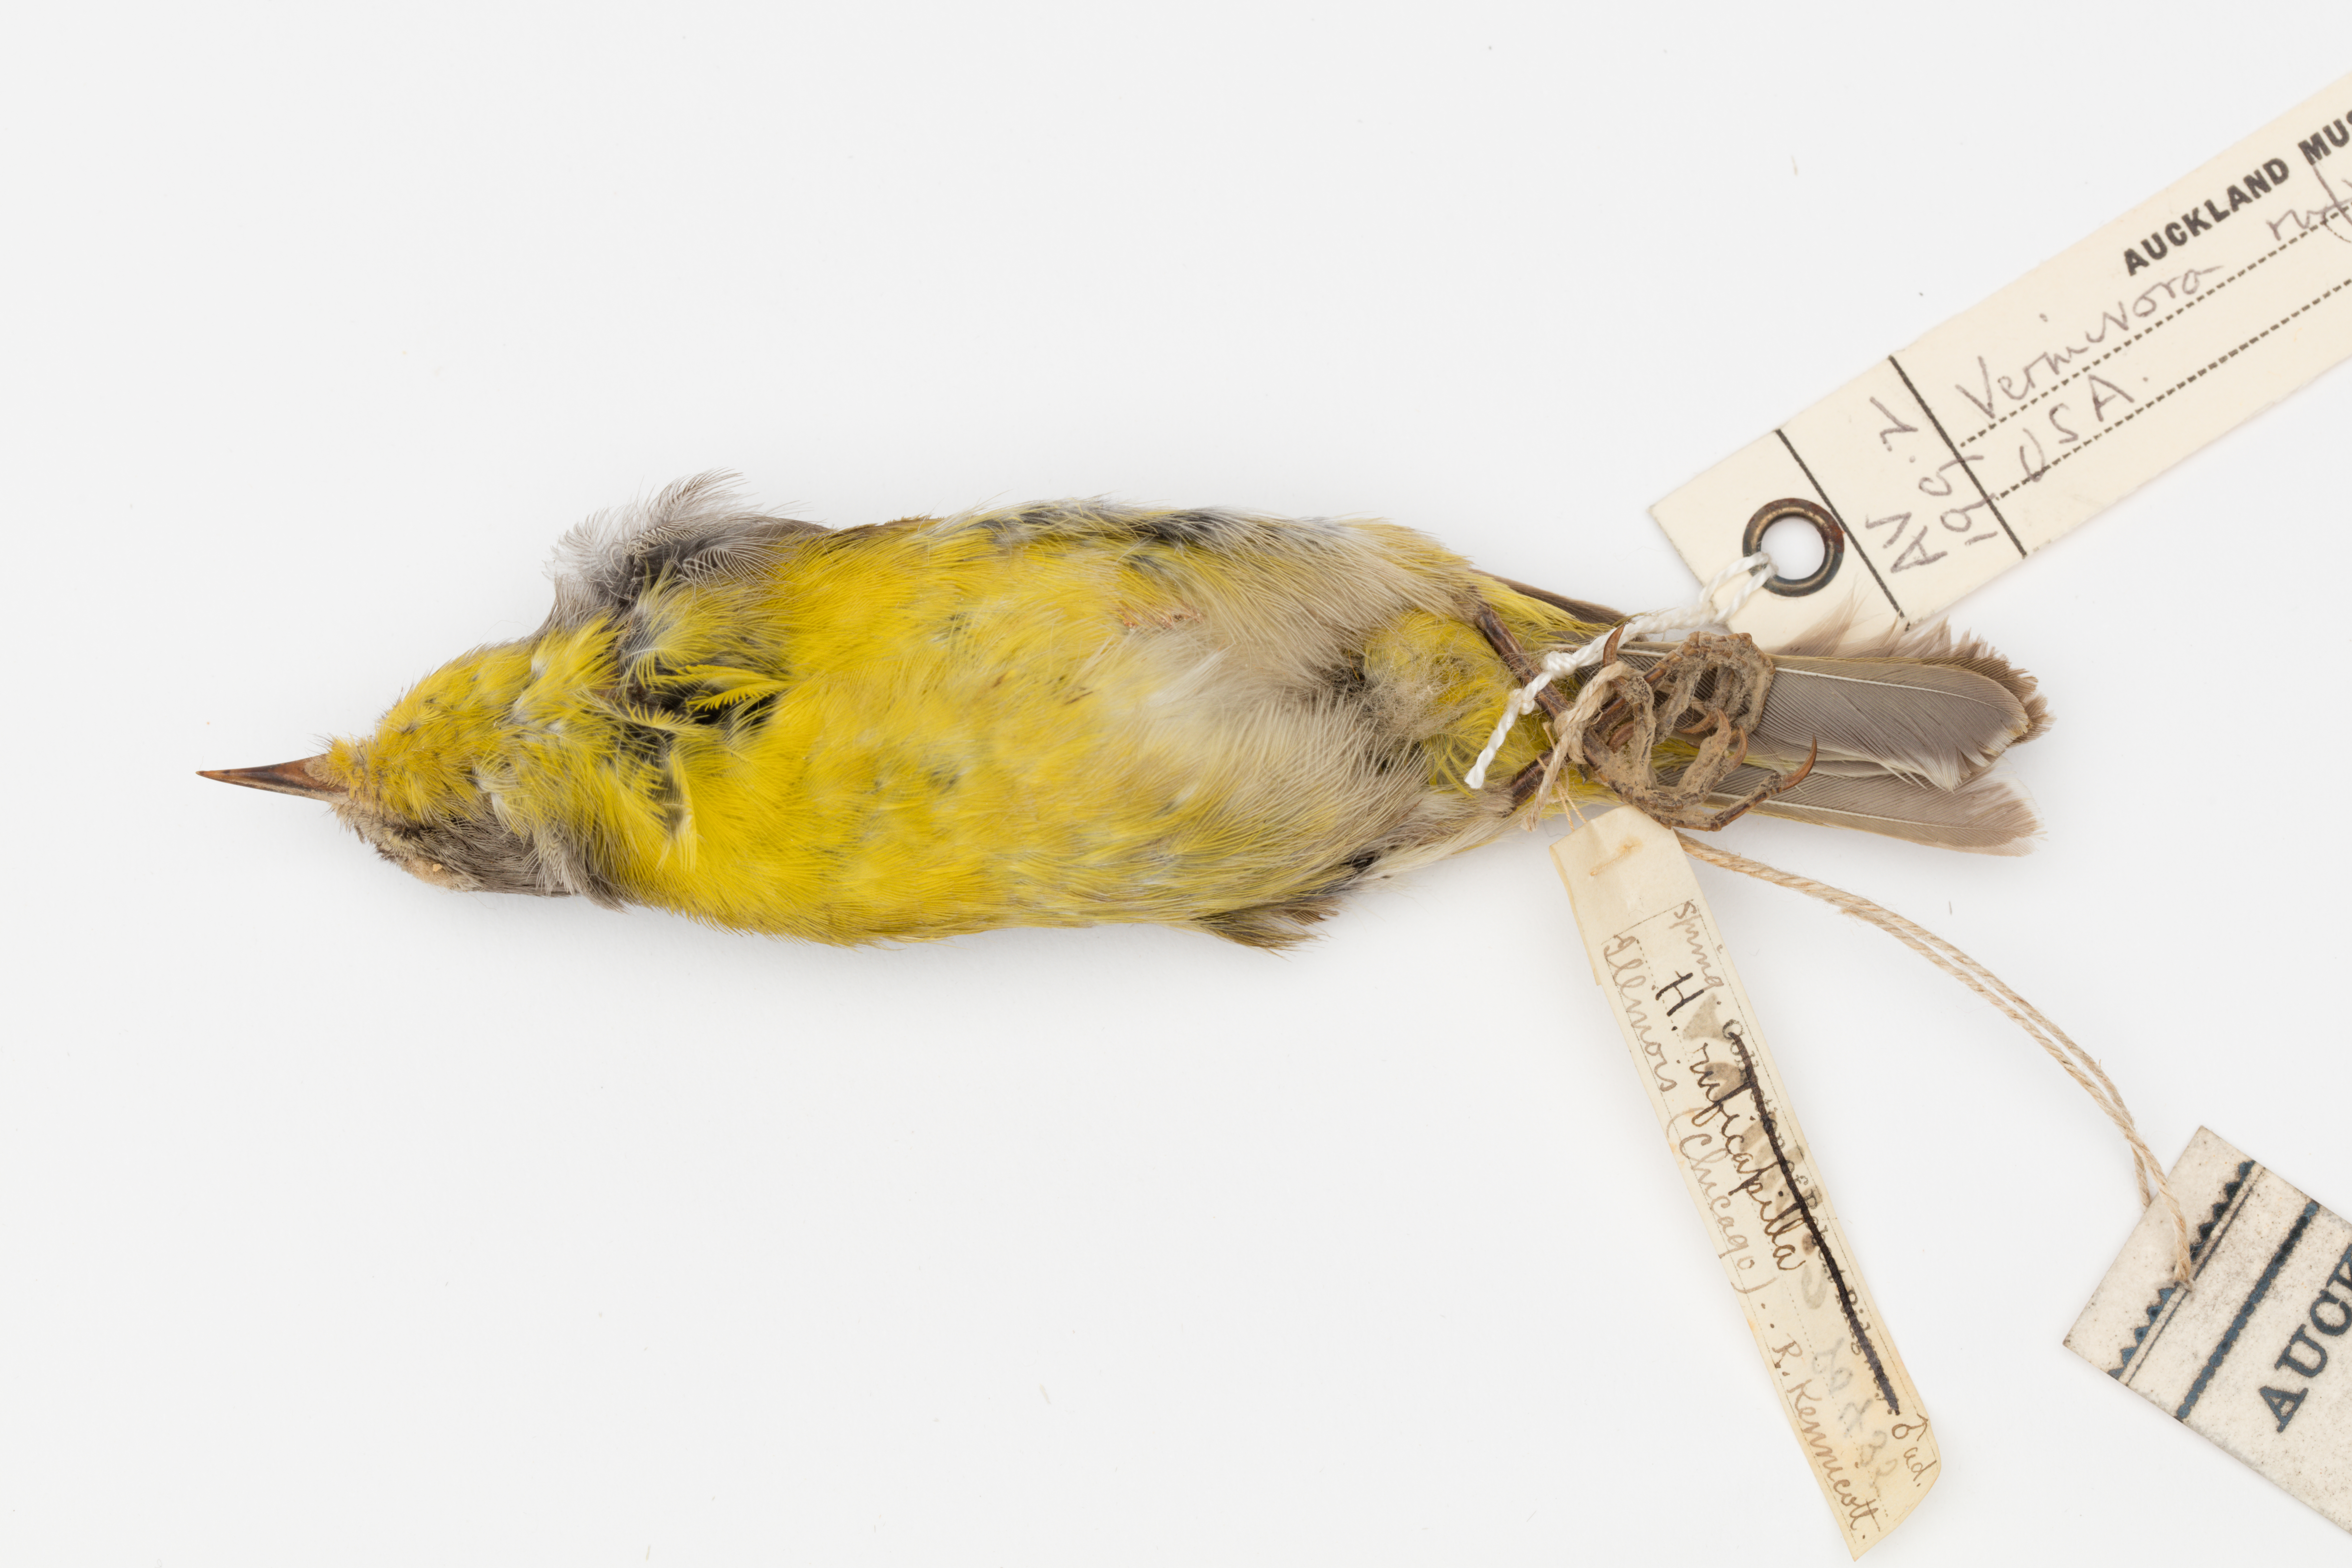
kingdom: Animalia
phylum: Chordata
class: Aves
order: Passeriformes
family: Parulidae
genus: Leiothlypis
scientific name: Leiothlypis ruficapilla
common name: Nashville warbler
